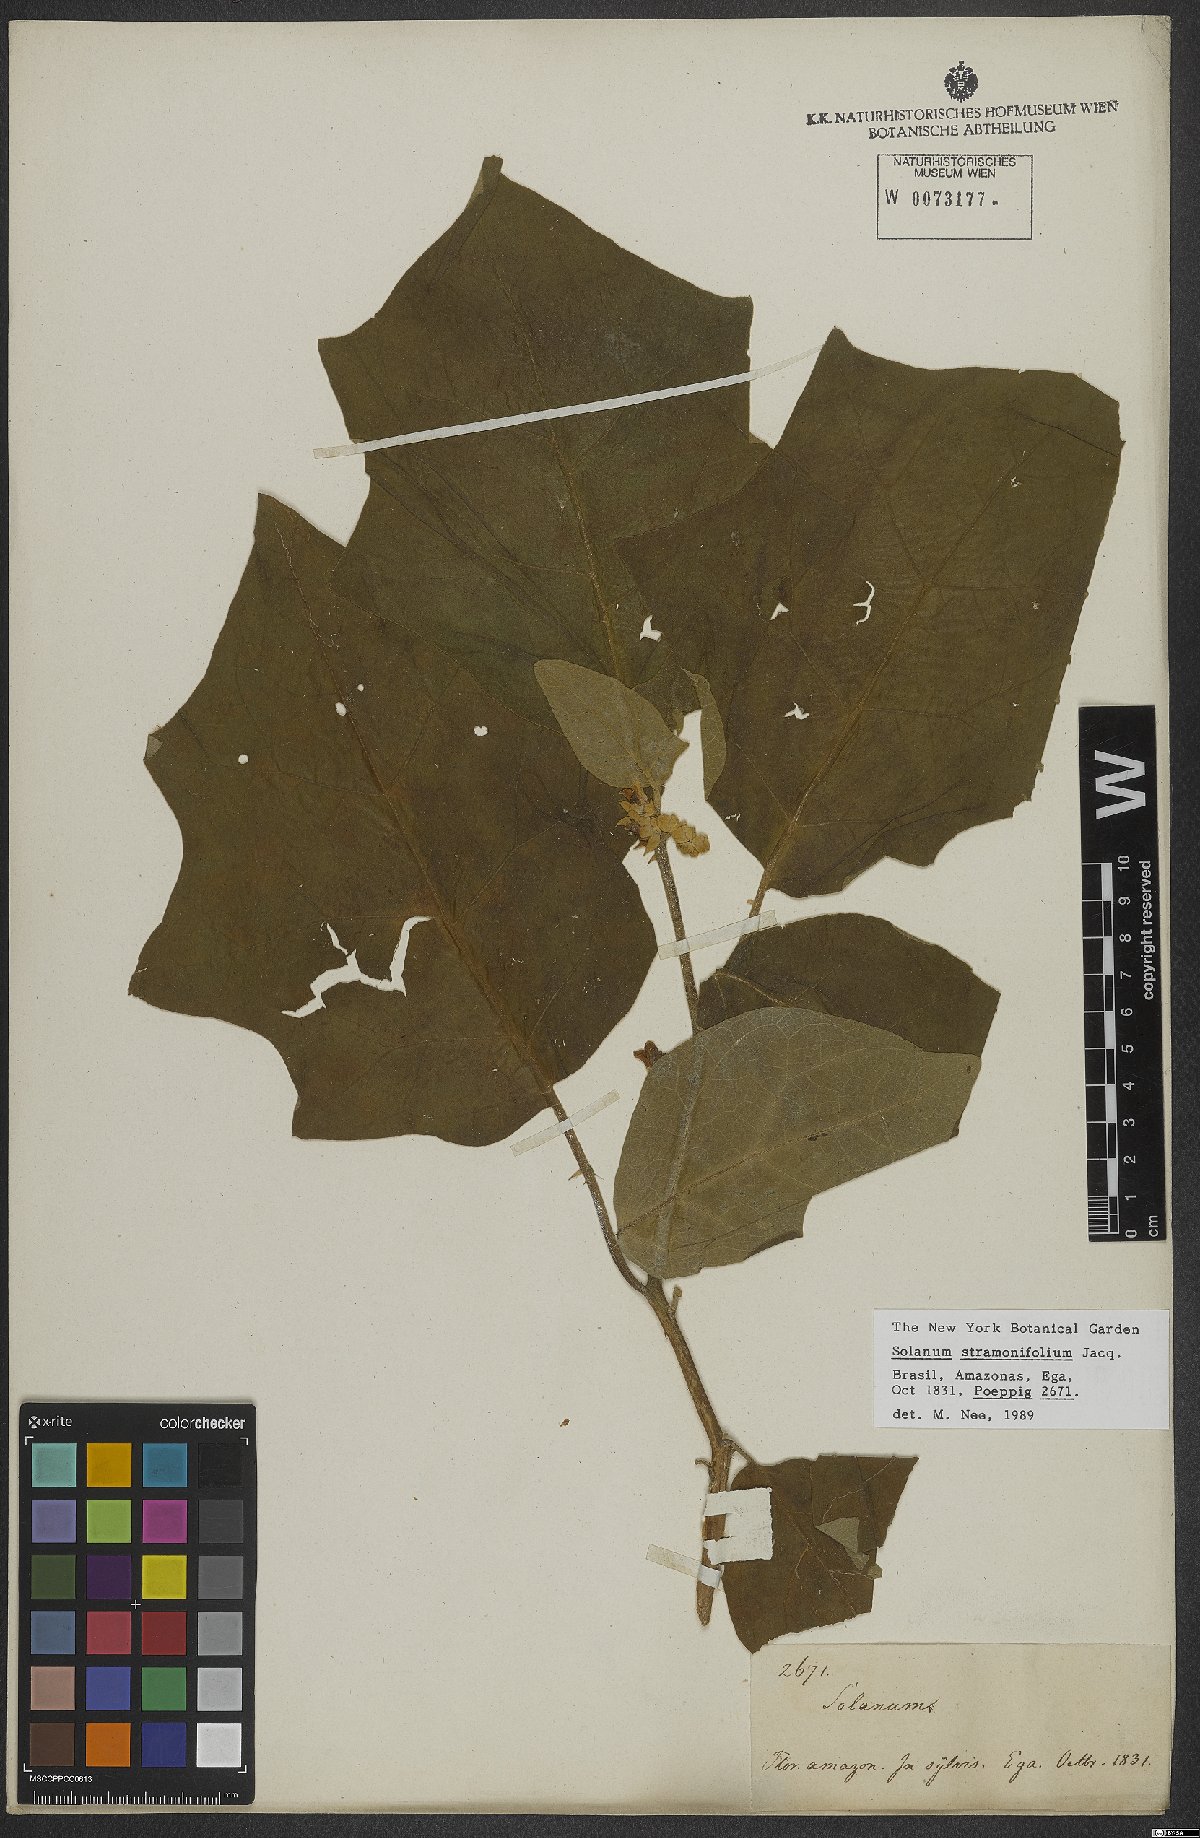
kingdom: Plantae
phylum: Tracheophyta
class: Magnoliopsida
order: Solanales
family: Solanaceae
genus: Solanum
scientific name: Solanum stramonifolium
